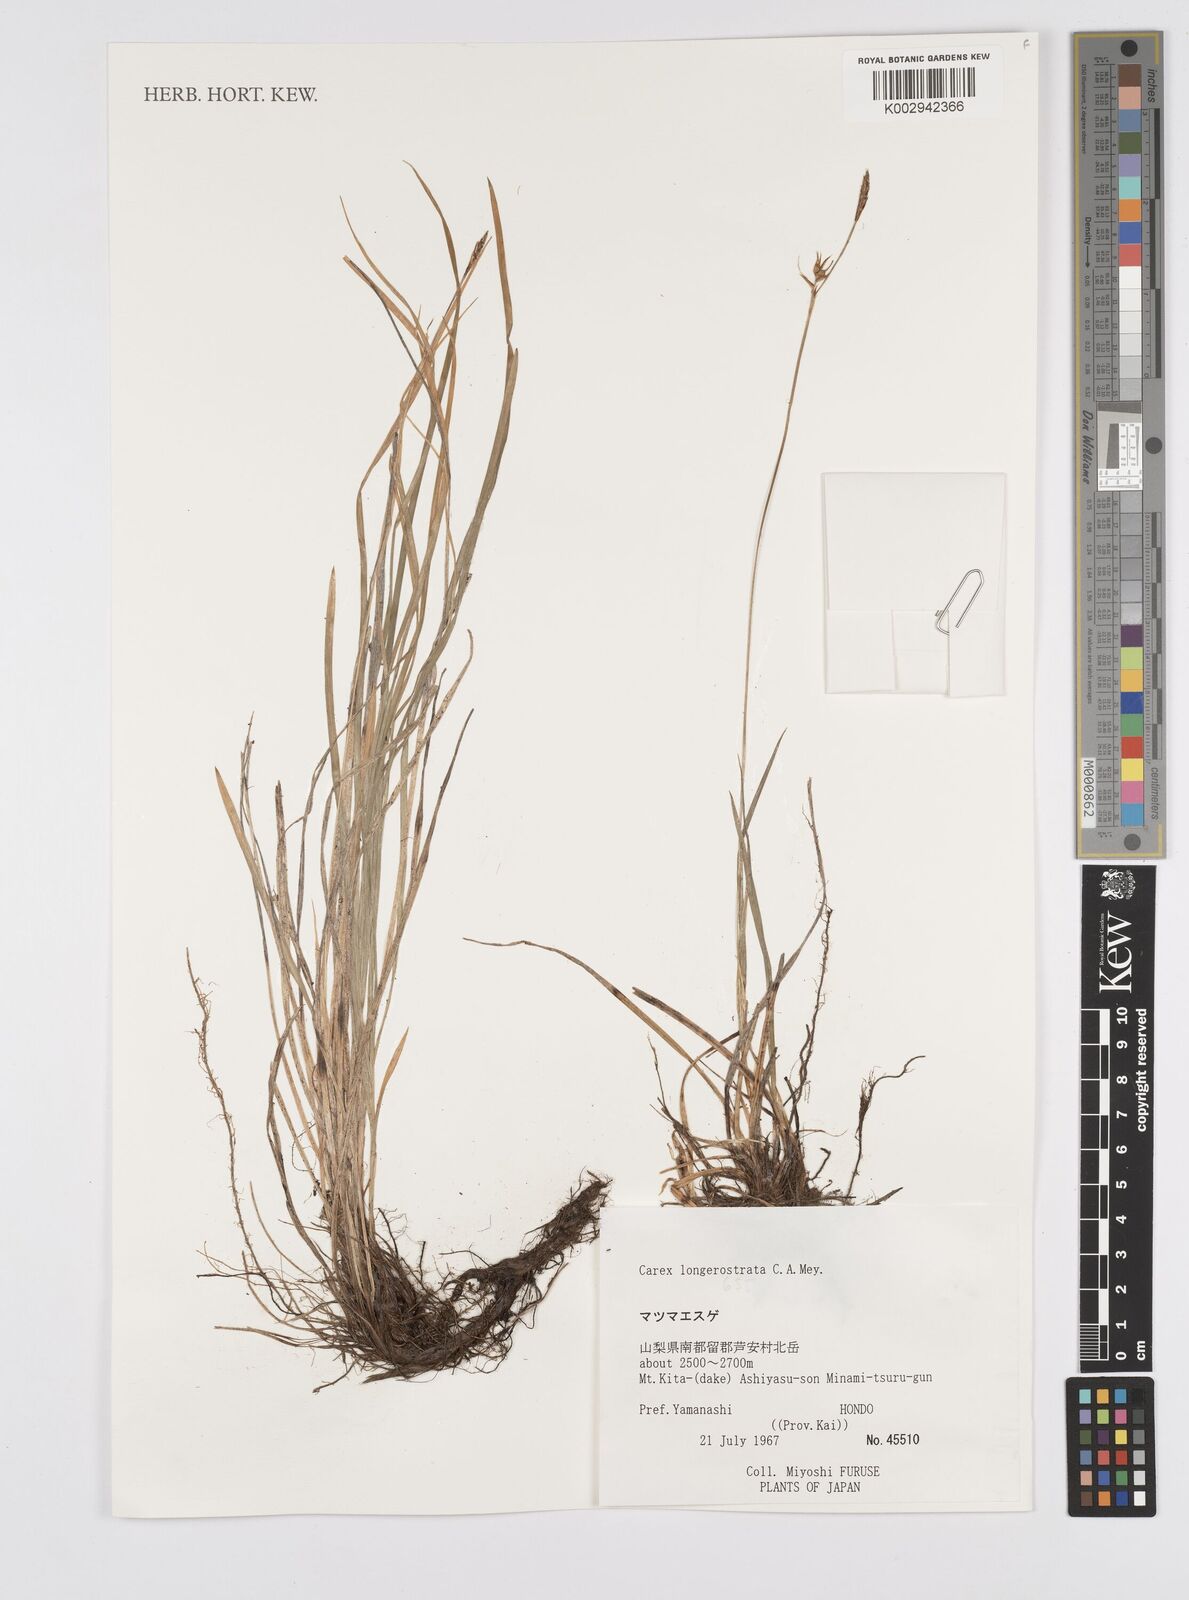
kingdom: Plantae
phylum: Tracheophyta
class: Liliopsida
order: Poales
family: Cyperaceae
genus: Carex
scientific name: Carex longerostrata
